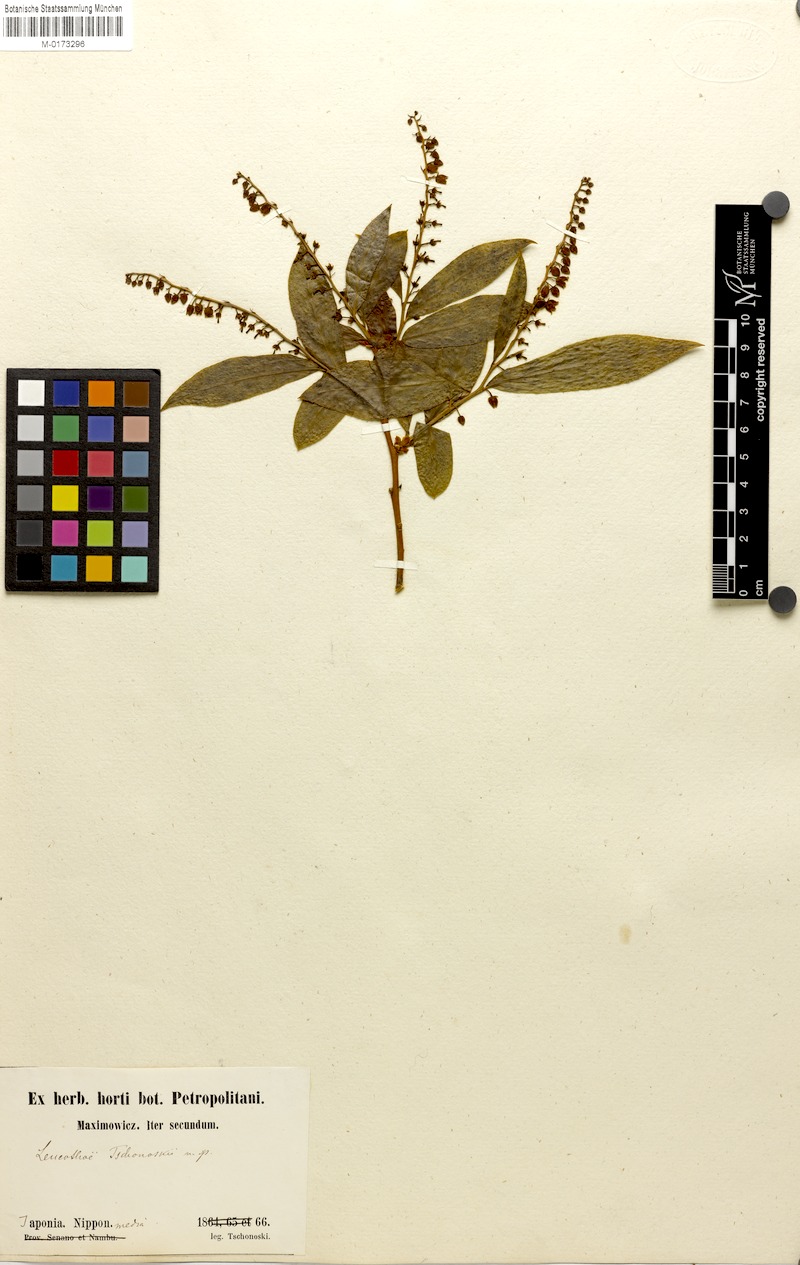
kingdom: Plantae
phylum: Tracheophyta
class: Magnoliopsida
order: Ericales
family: Ericaceae
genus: Leucothoe
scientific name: Leucothoe grayana
